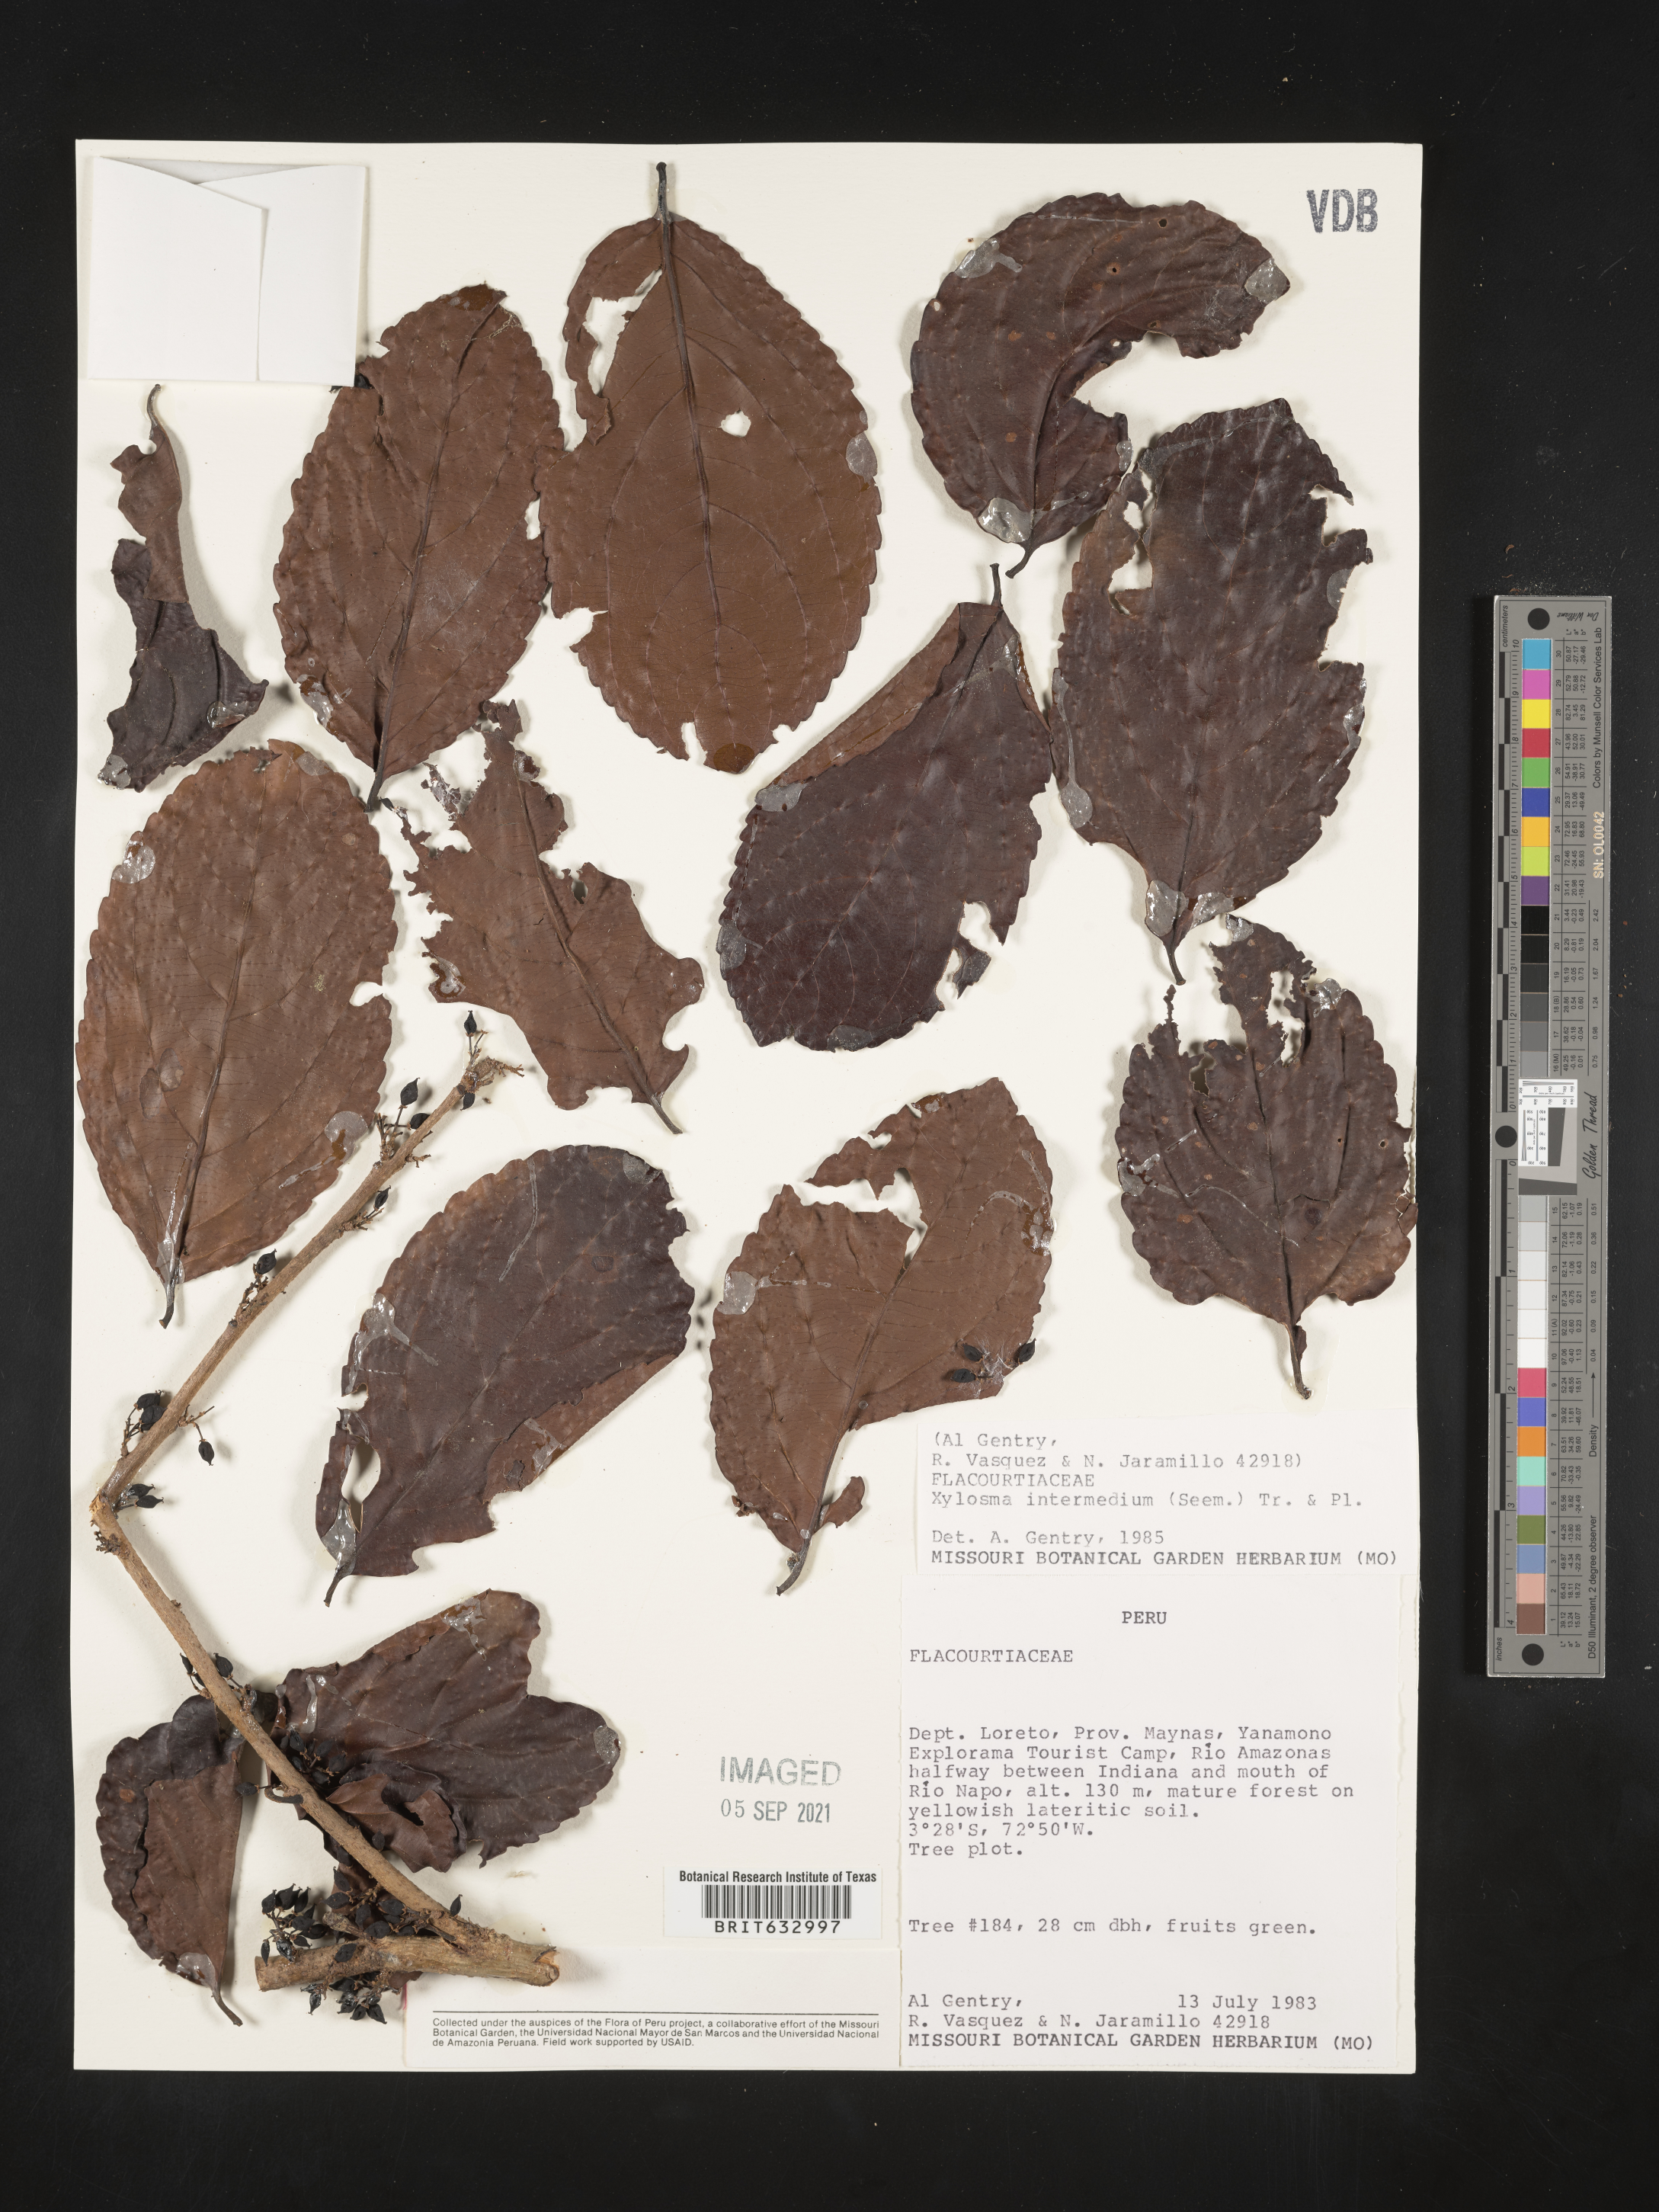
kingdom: Plantae
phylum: Tracheophyta
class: Magnoliopsida
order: Malpighiales
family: Salicaceae
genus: Xylosma
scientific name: Xylosma
